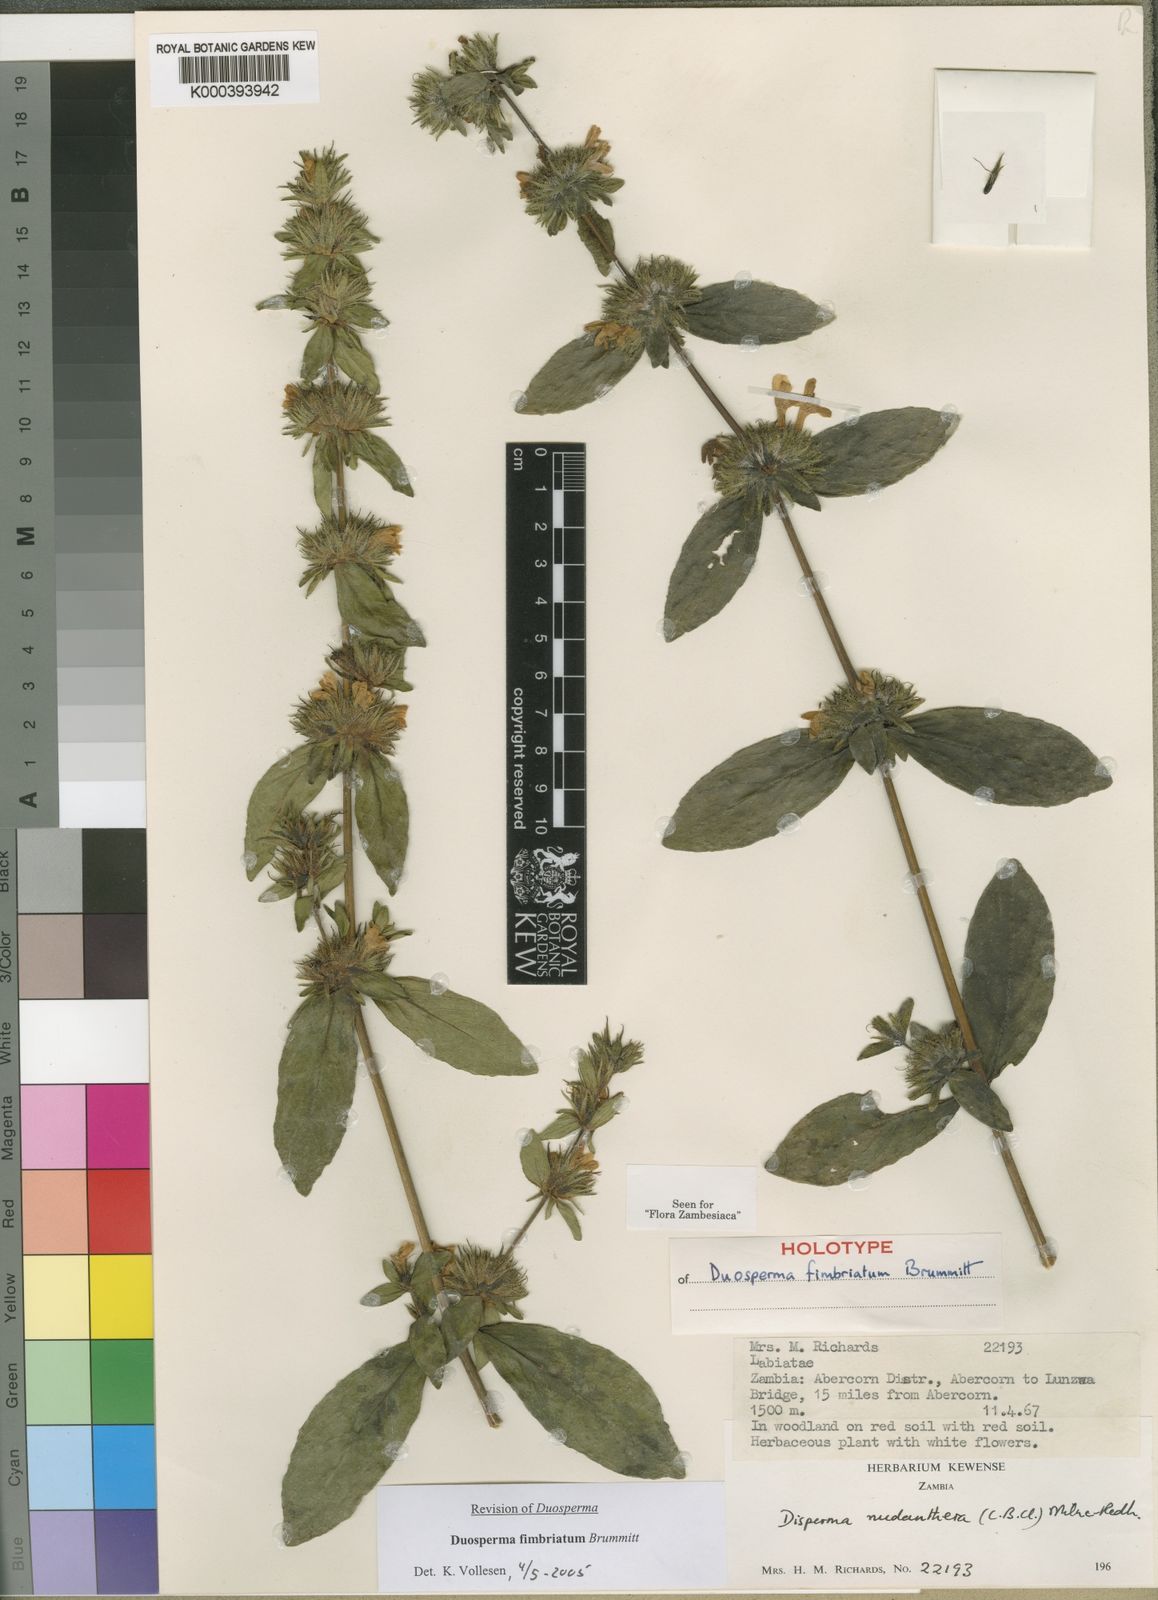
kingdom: Plantae
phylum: Tracheophyta
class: Magnoliopsida
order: Lamiales
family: Acanthaceae
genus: Duosperma
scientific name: Duosperma fimbriatum
